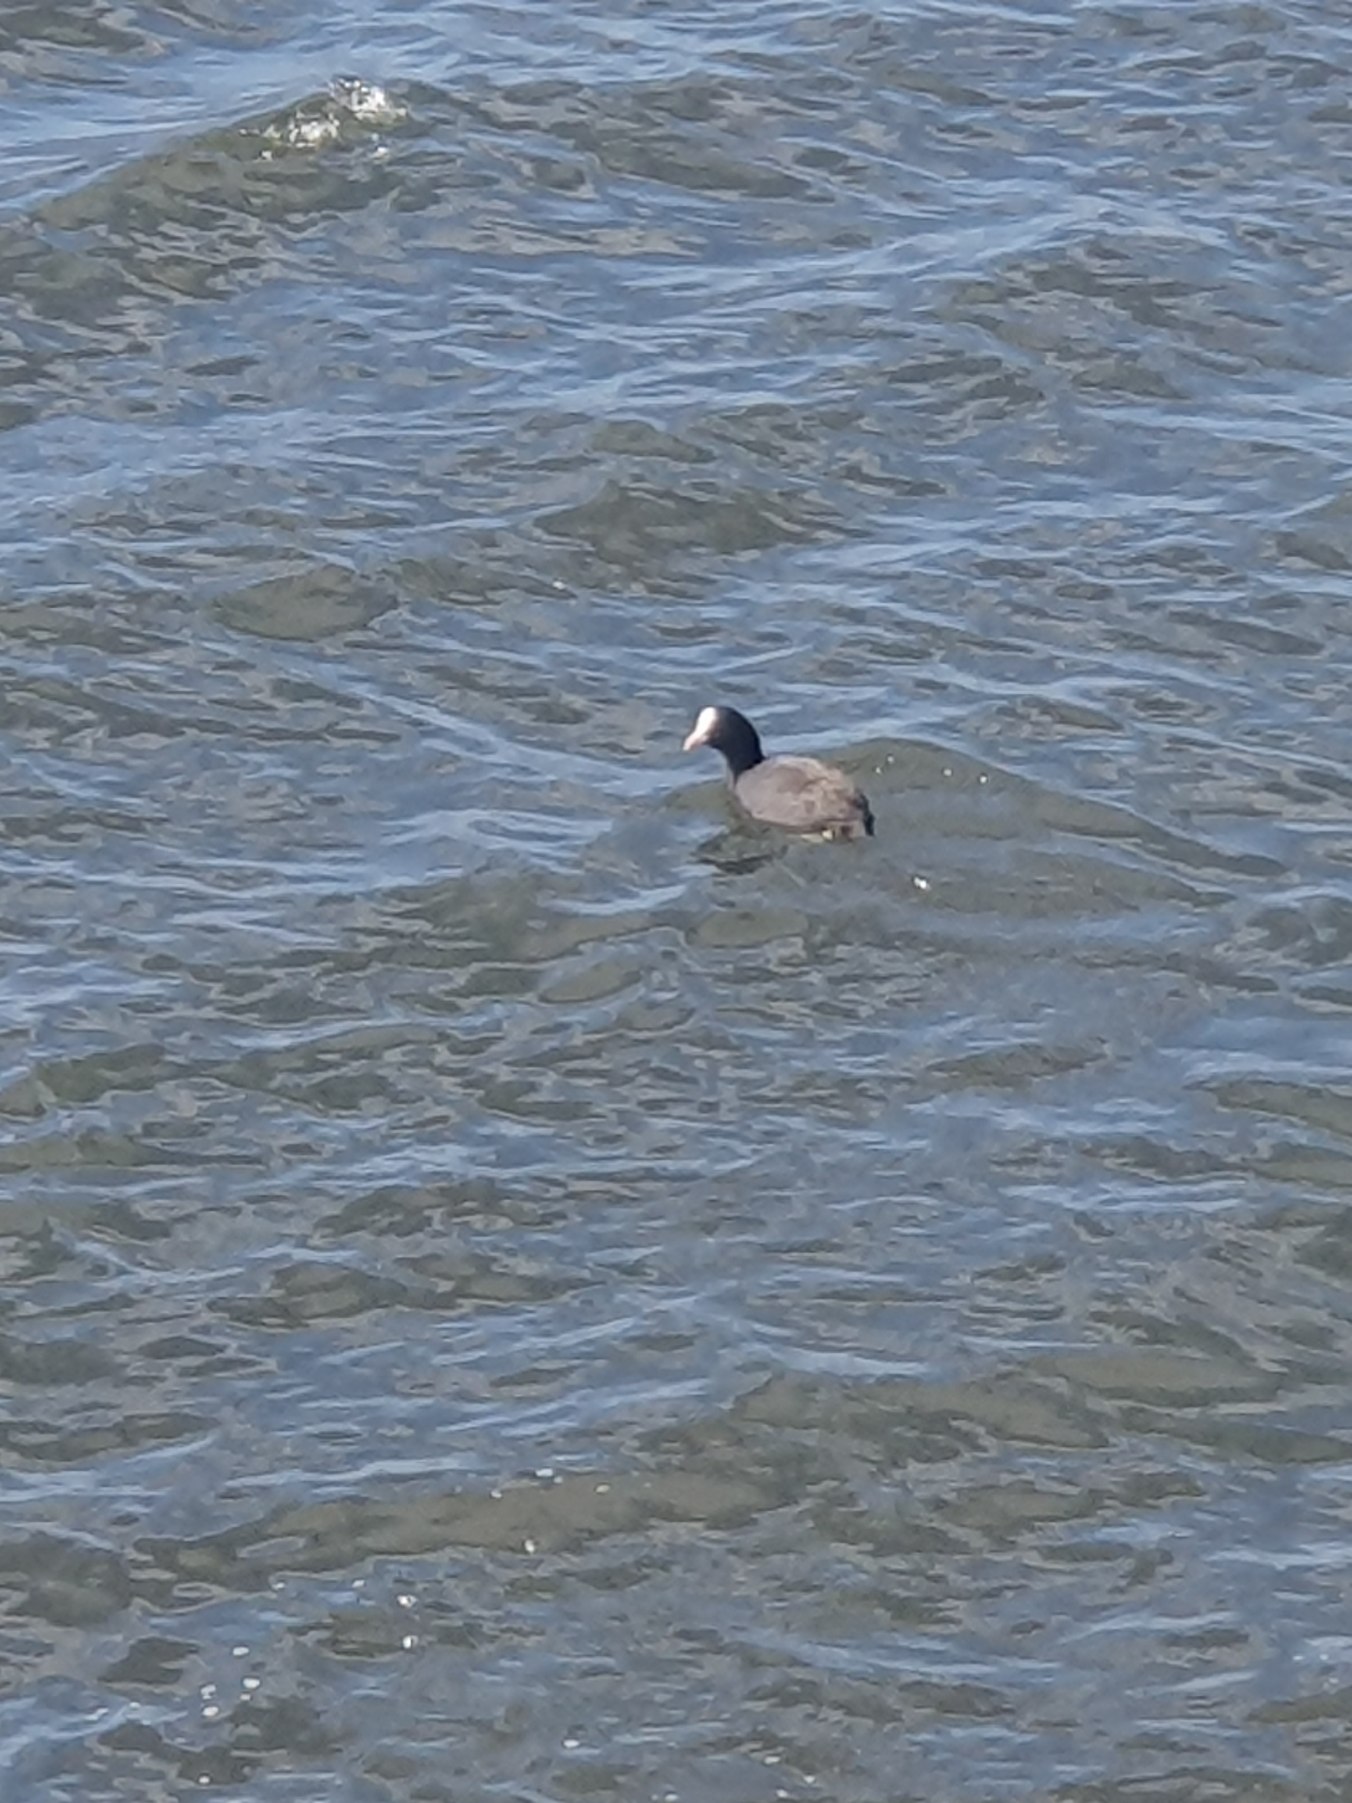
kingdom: Animalia
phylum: Chordata
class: Aves
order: Gruiformes
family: Rallidae
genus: Fulica
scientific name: Fulica atra
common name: Blishøne
